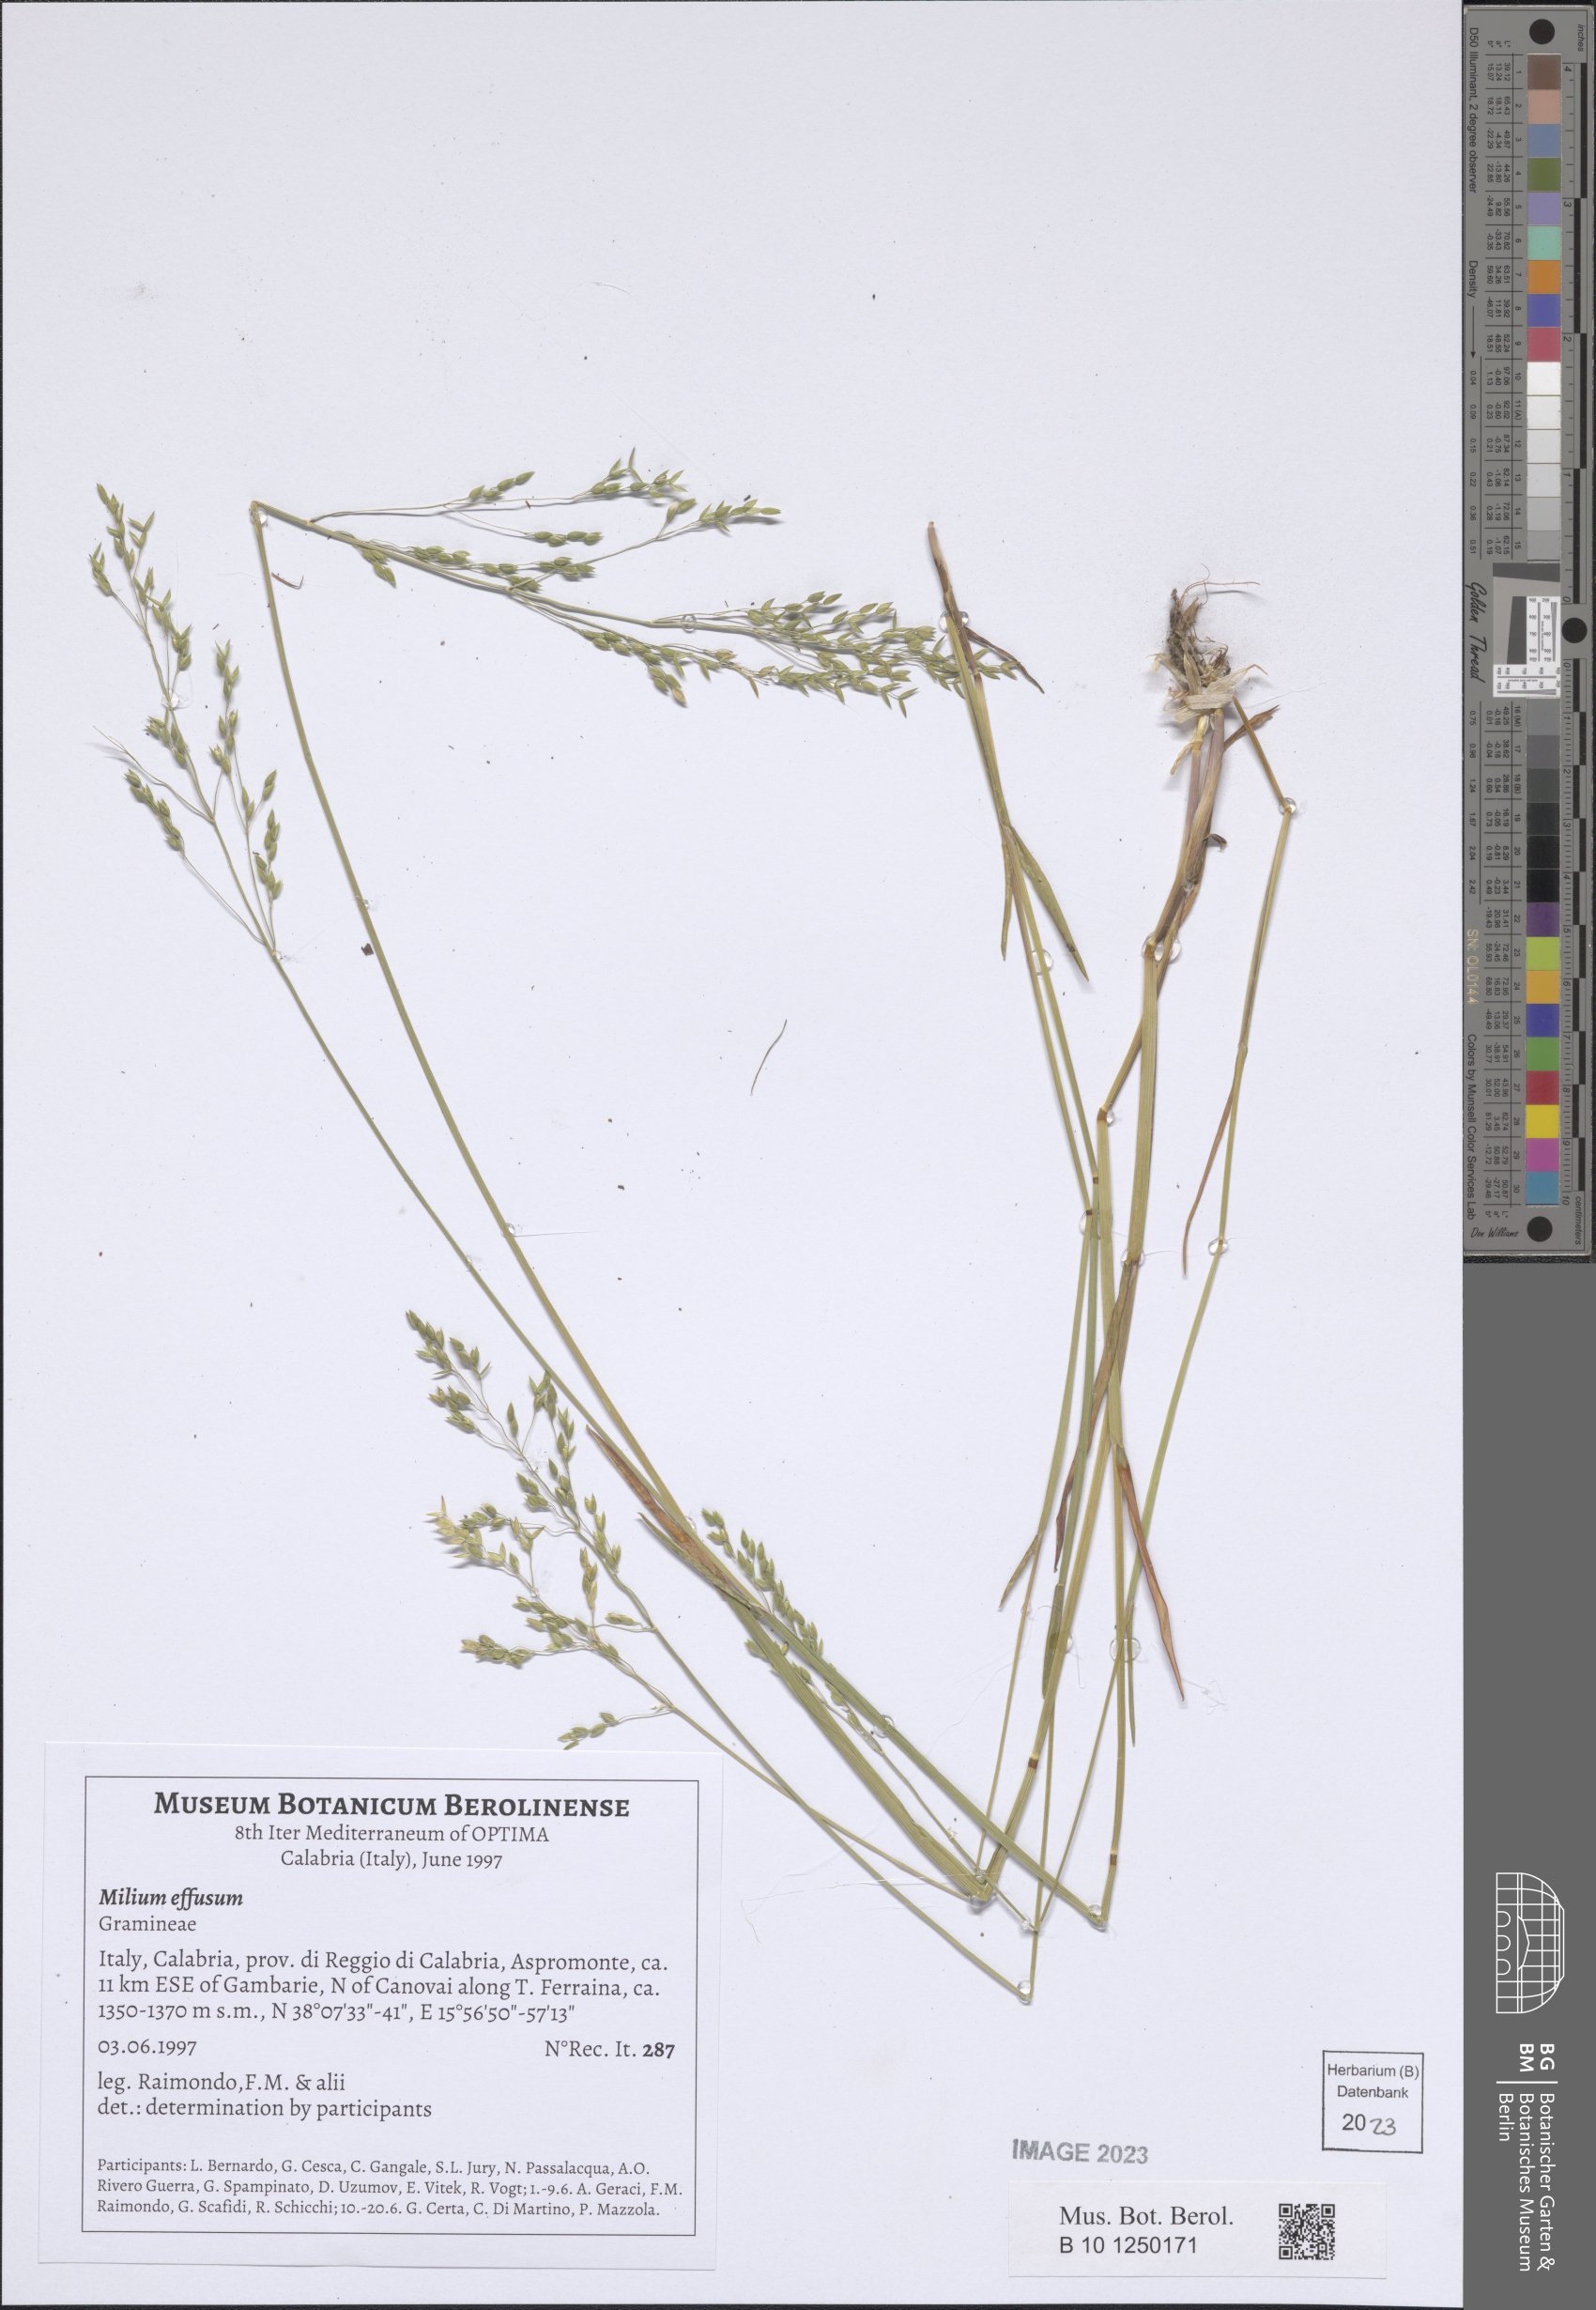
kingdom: Plantae
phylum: Tracheophyta
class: Liliopsida
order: Poales
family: Poaceae
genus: Milium
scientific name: Milium effusum
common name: Wood millet
